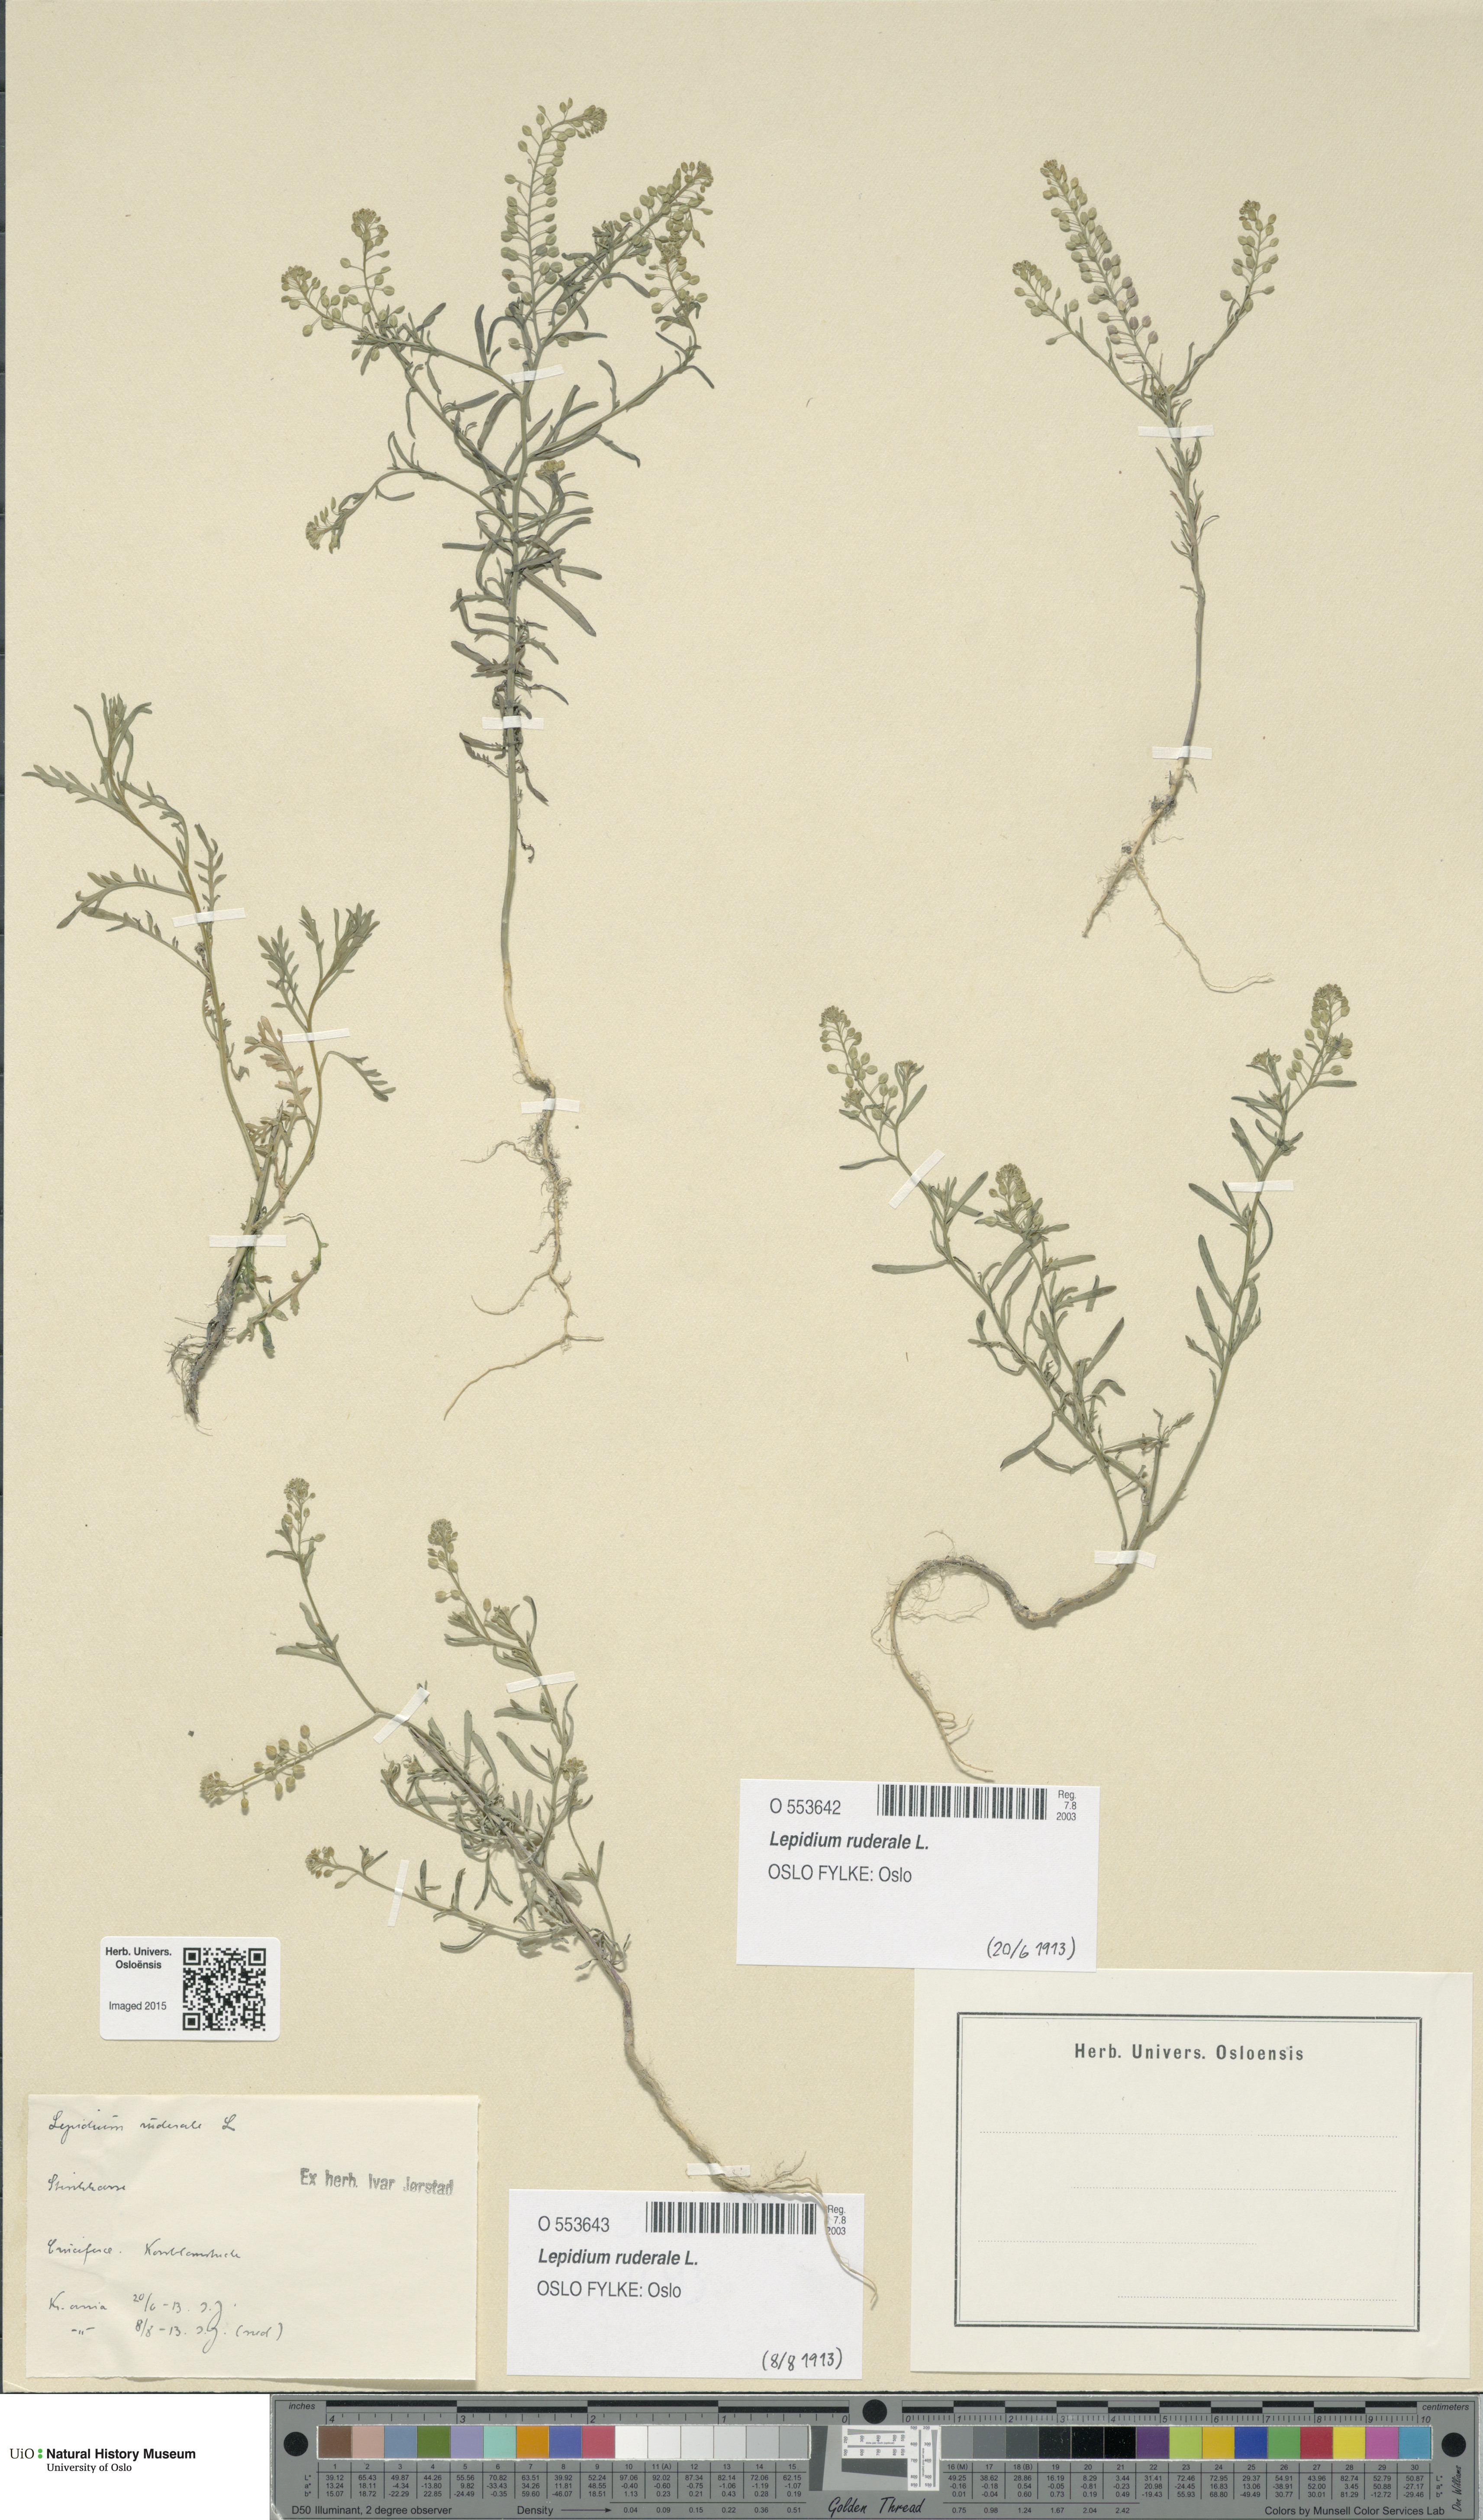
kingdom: Plantae
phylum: Tracheophyta
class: Magnoliopsida
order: Brassicales
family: Brassicaceae
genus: Lepidium
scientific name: Lepidium ruderale
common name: Narrow-leaved pepperwort
